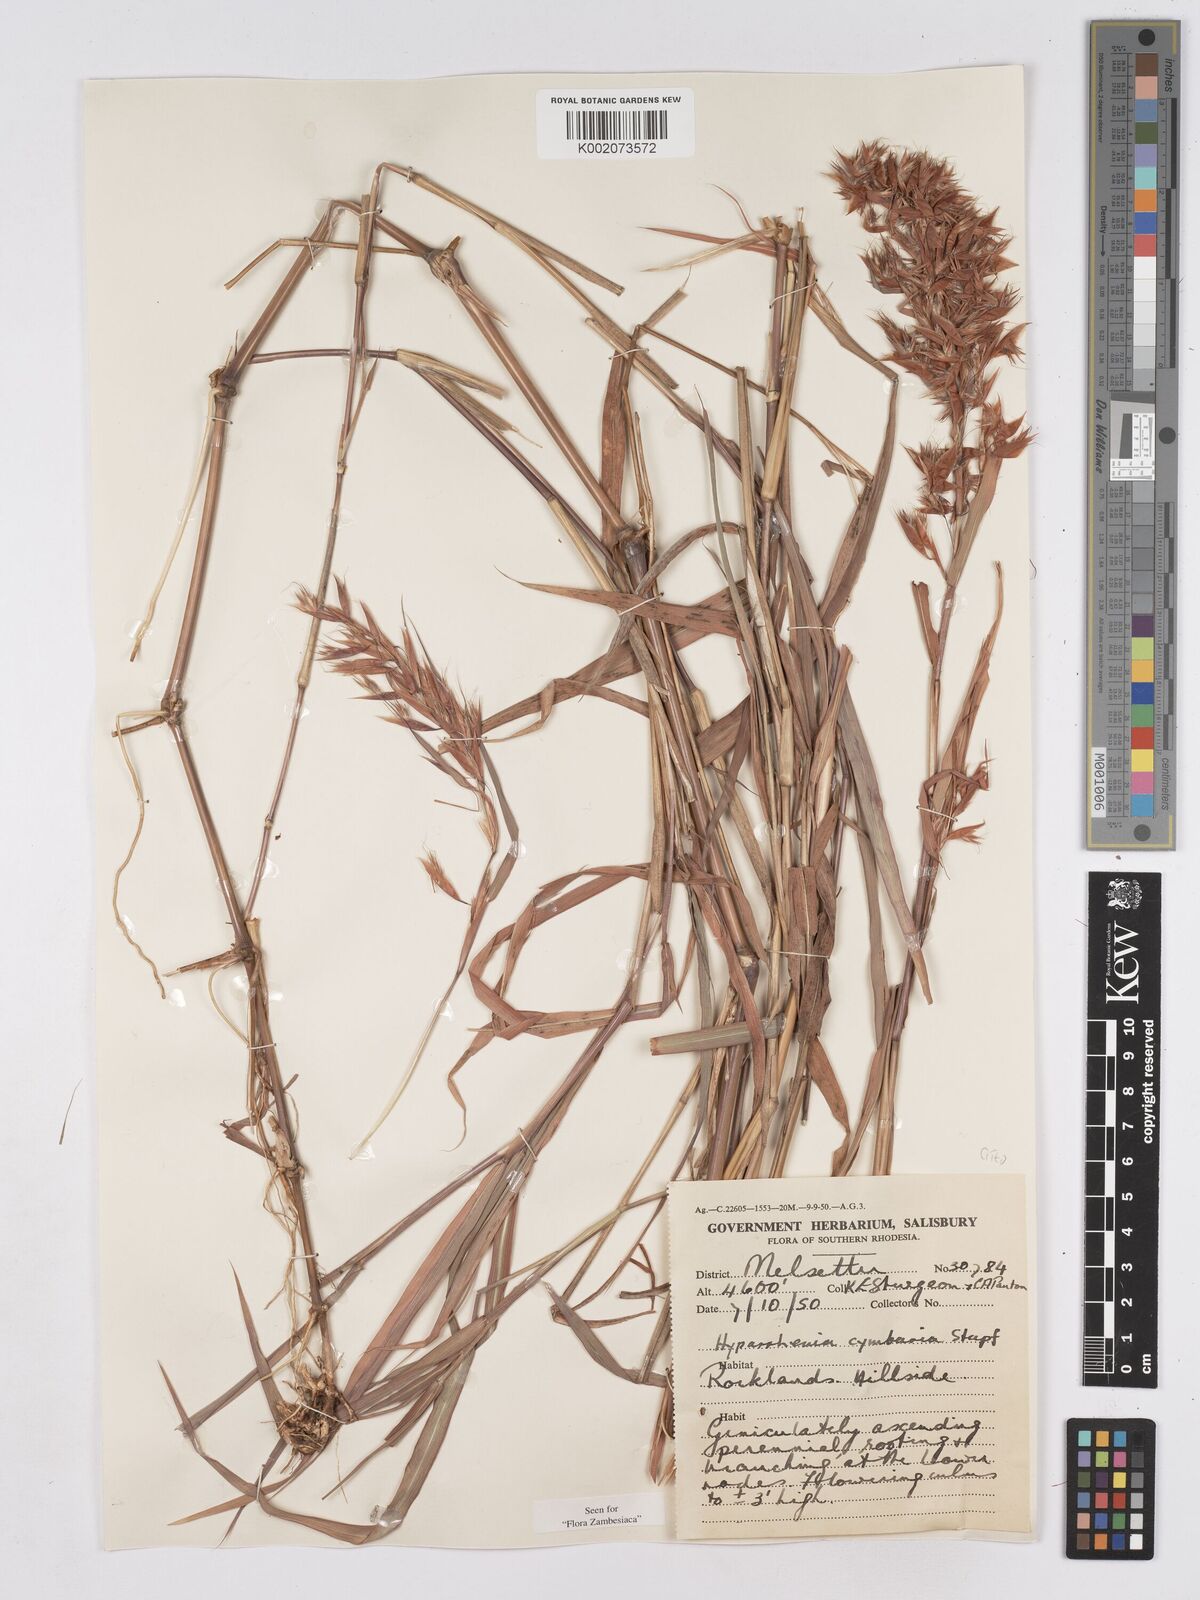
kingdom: Plantae
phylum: Tracheophyta
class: Liliopsida
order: Poales
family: Poaceae
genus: Hyparrhenia
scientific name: Hyparrhenia cymbaria
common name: Boat thatching grass
